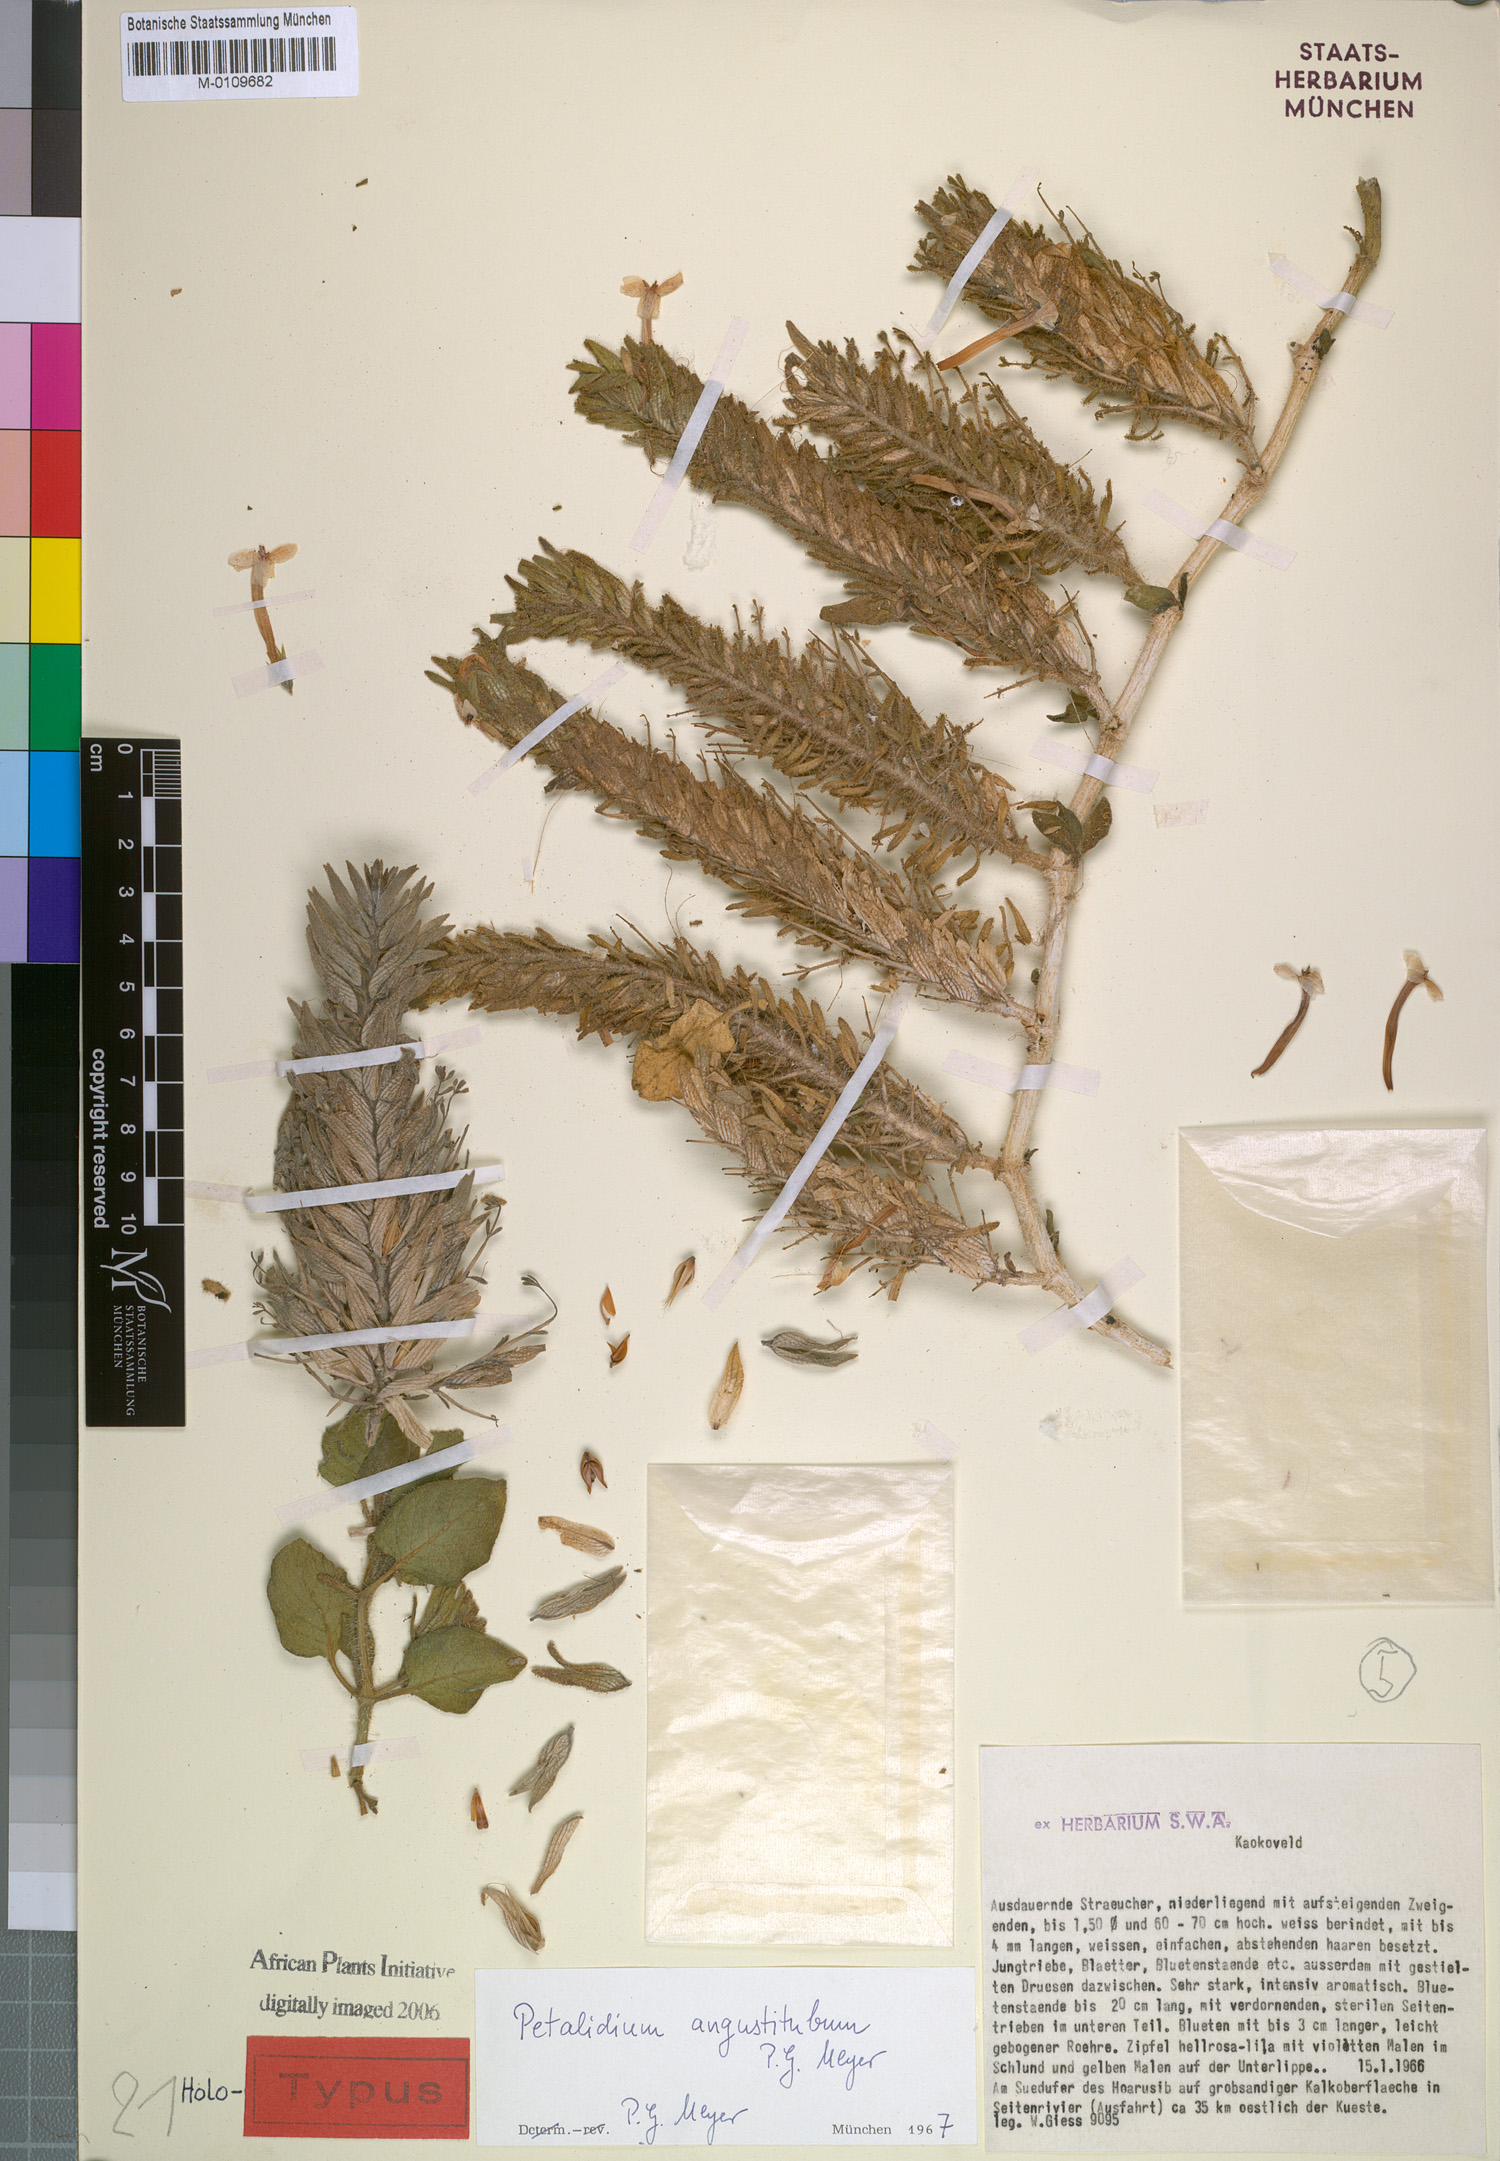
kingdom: Plantae
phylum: Tracheophyta
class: Magnoliopsida
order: Lamiales
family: Acanthaceae
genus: Petalidium
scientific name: Petalidium angustitubum
